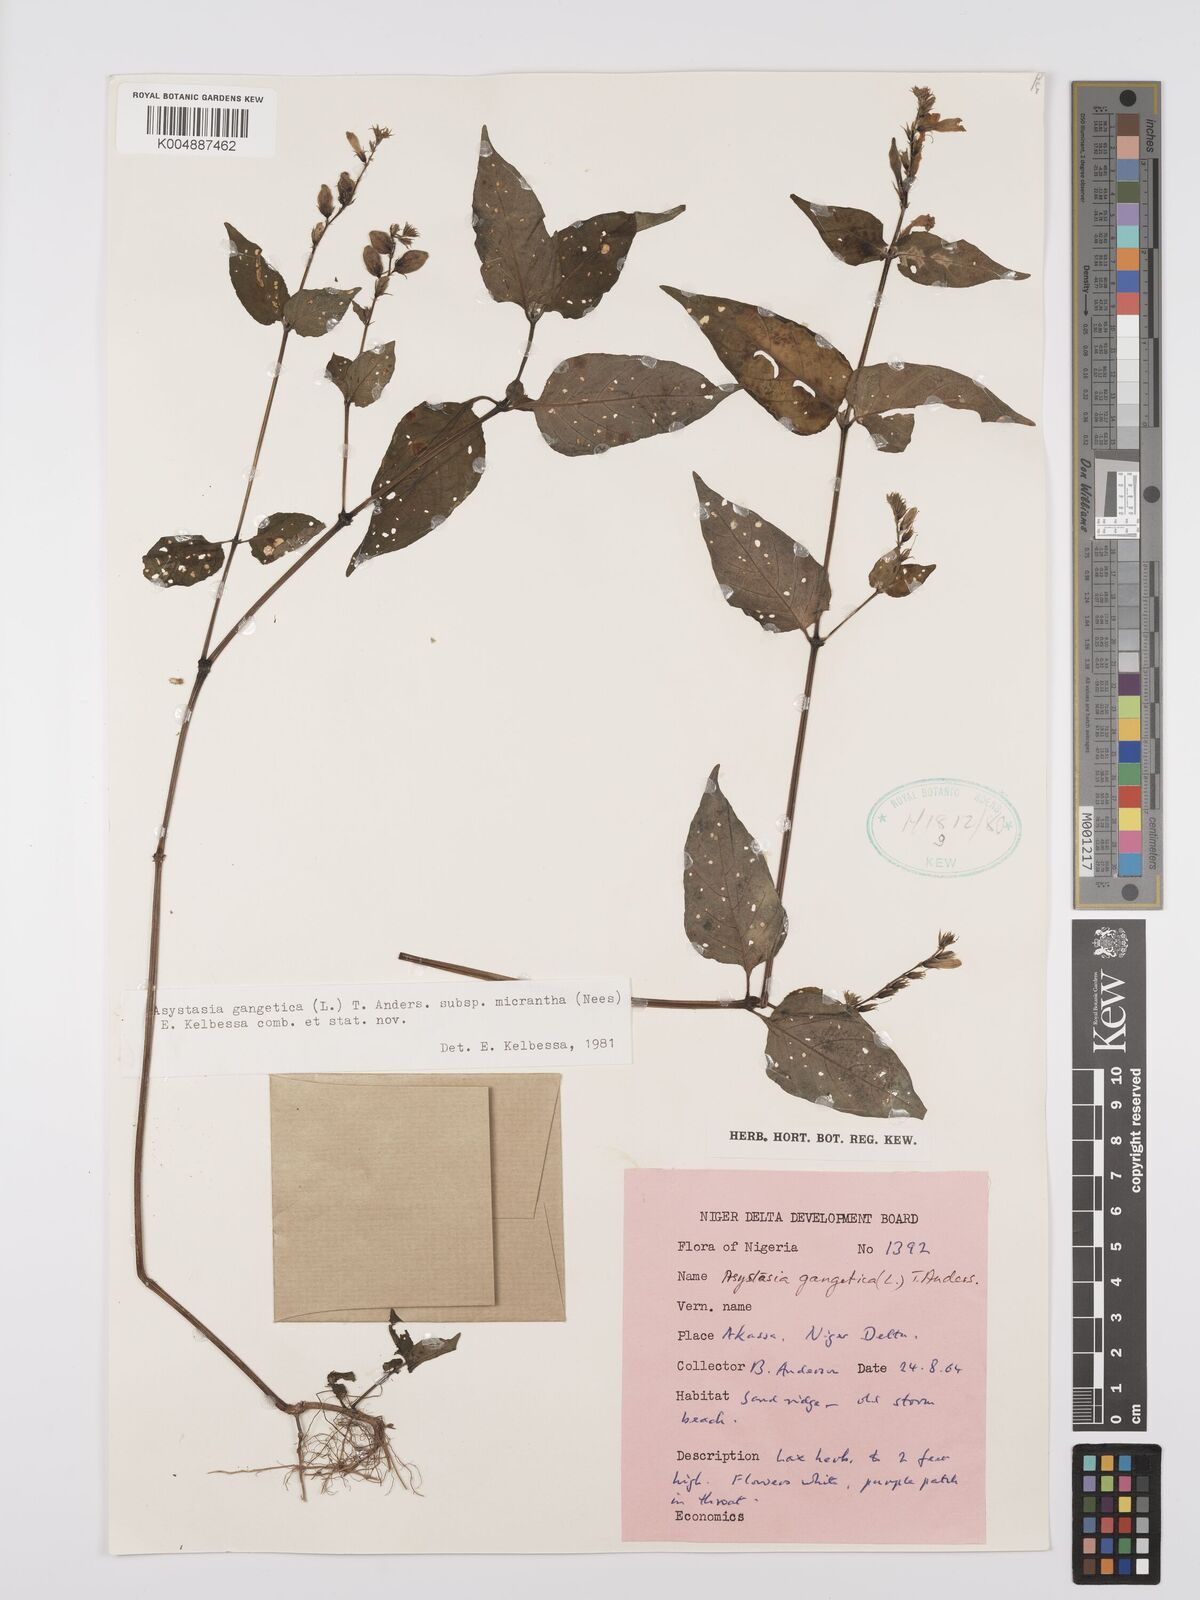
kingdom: Plantae
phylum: Tracheophyta
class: Magnoliopsida
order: Lamiales
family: Acanthaceae
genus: Asystasia
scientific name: Asystasia intrusa
